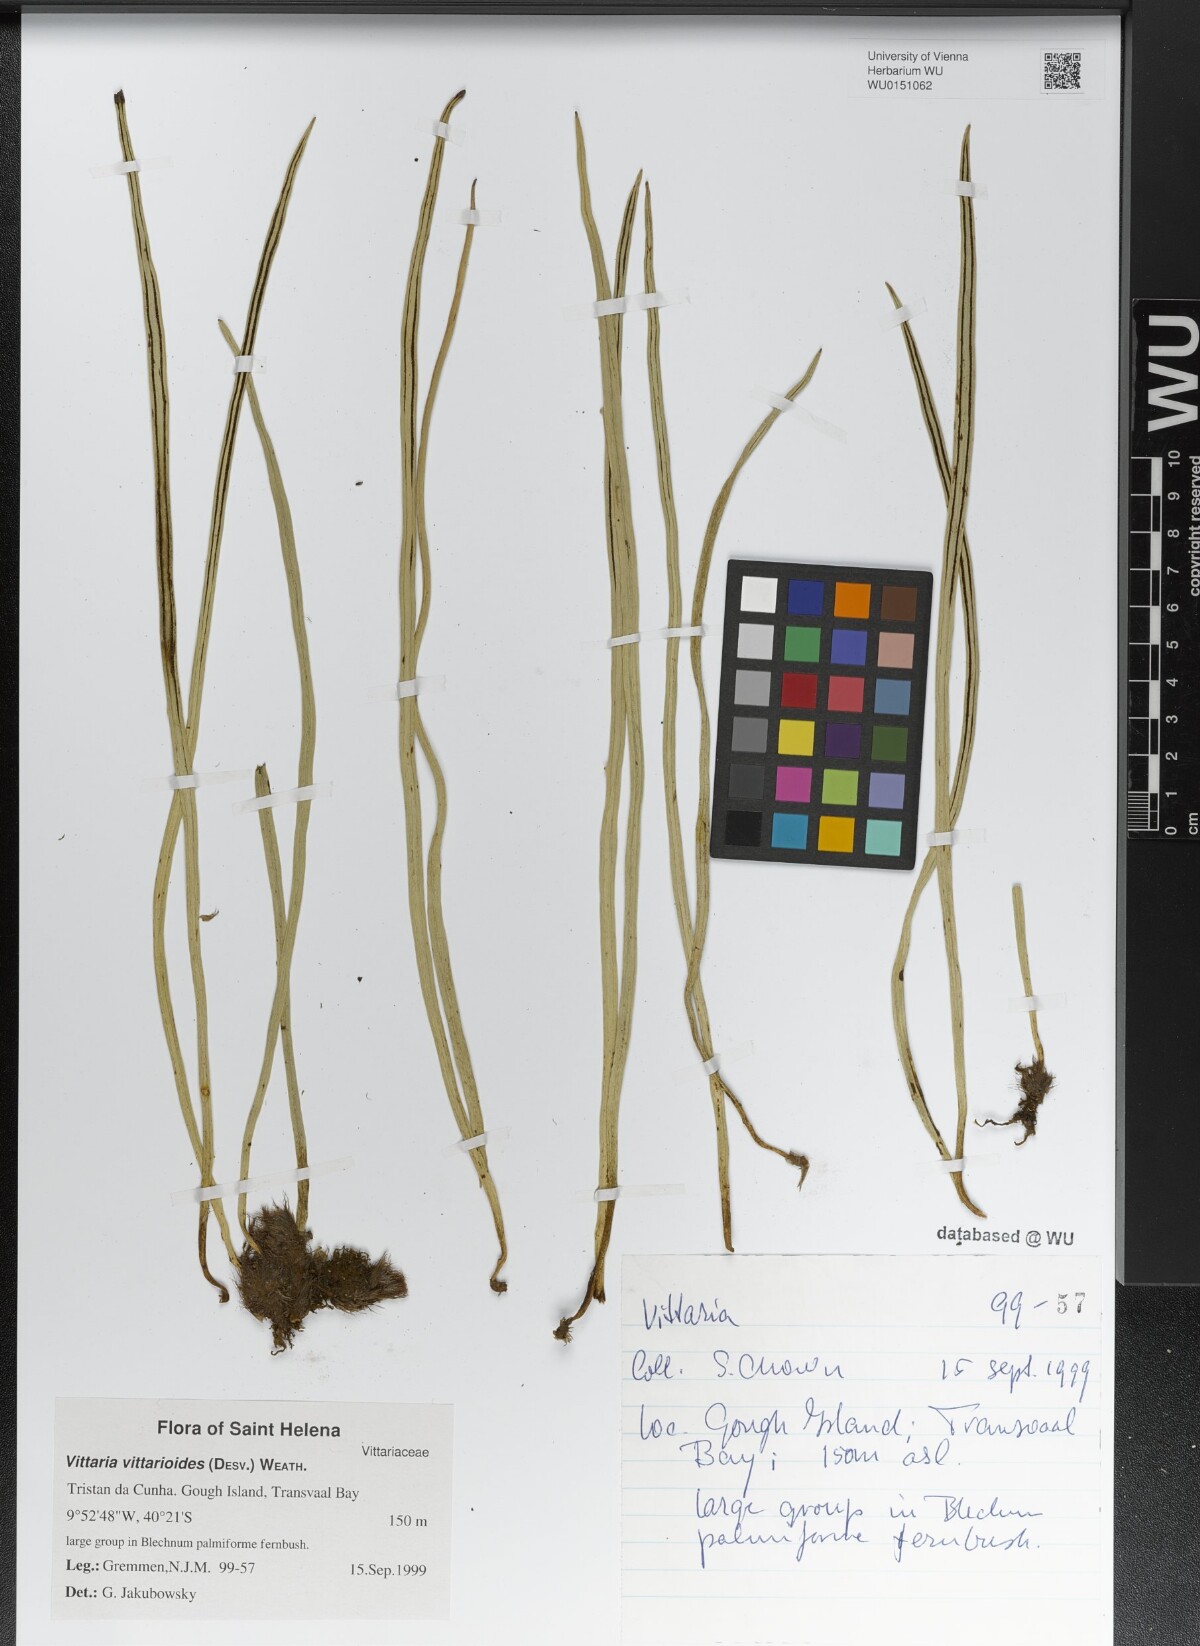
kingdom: Plantae
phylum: Tracheophyta
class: Polypodiopsida
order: Polypodiales
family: Pteridaceae
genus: Radiovittaria
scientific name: Radiovittaria ruiziana
